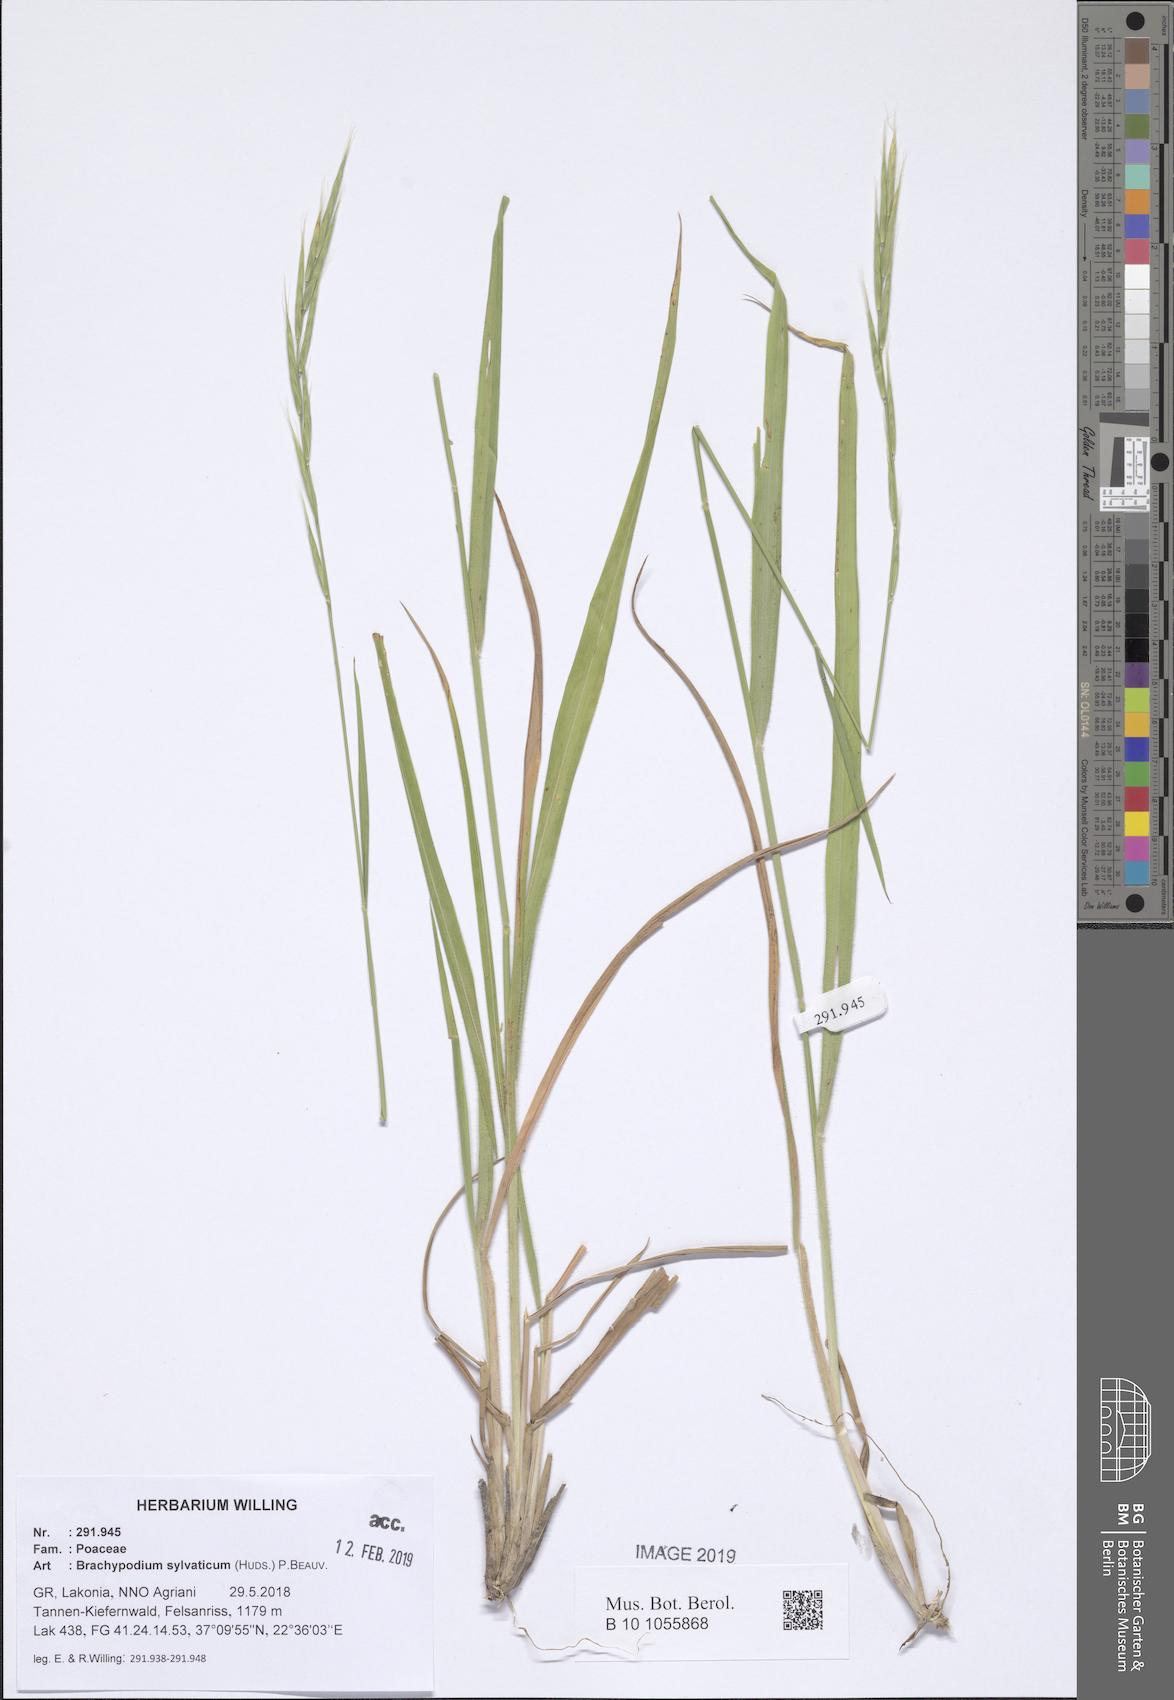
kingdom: Plantae
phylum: Tracheophyta
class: Liliopsida
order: Poales
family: Poaceae
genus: Brachypodium
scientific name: Brachypodium sylvaticum
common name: False-brome
